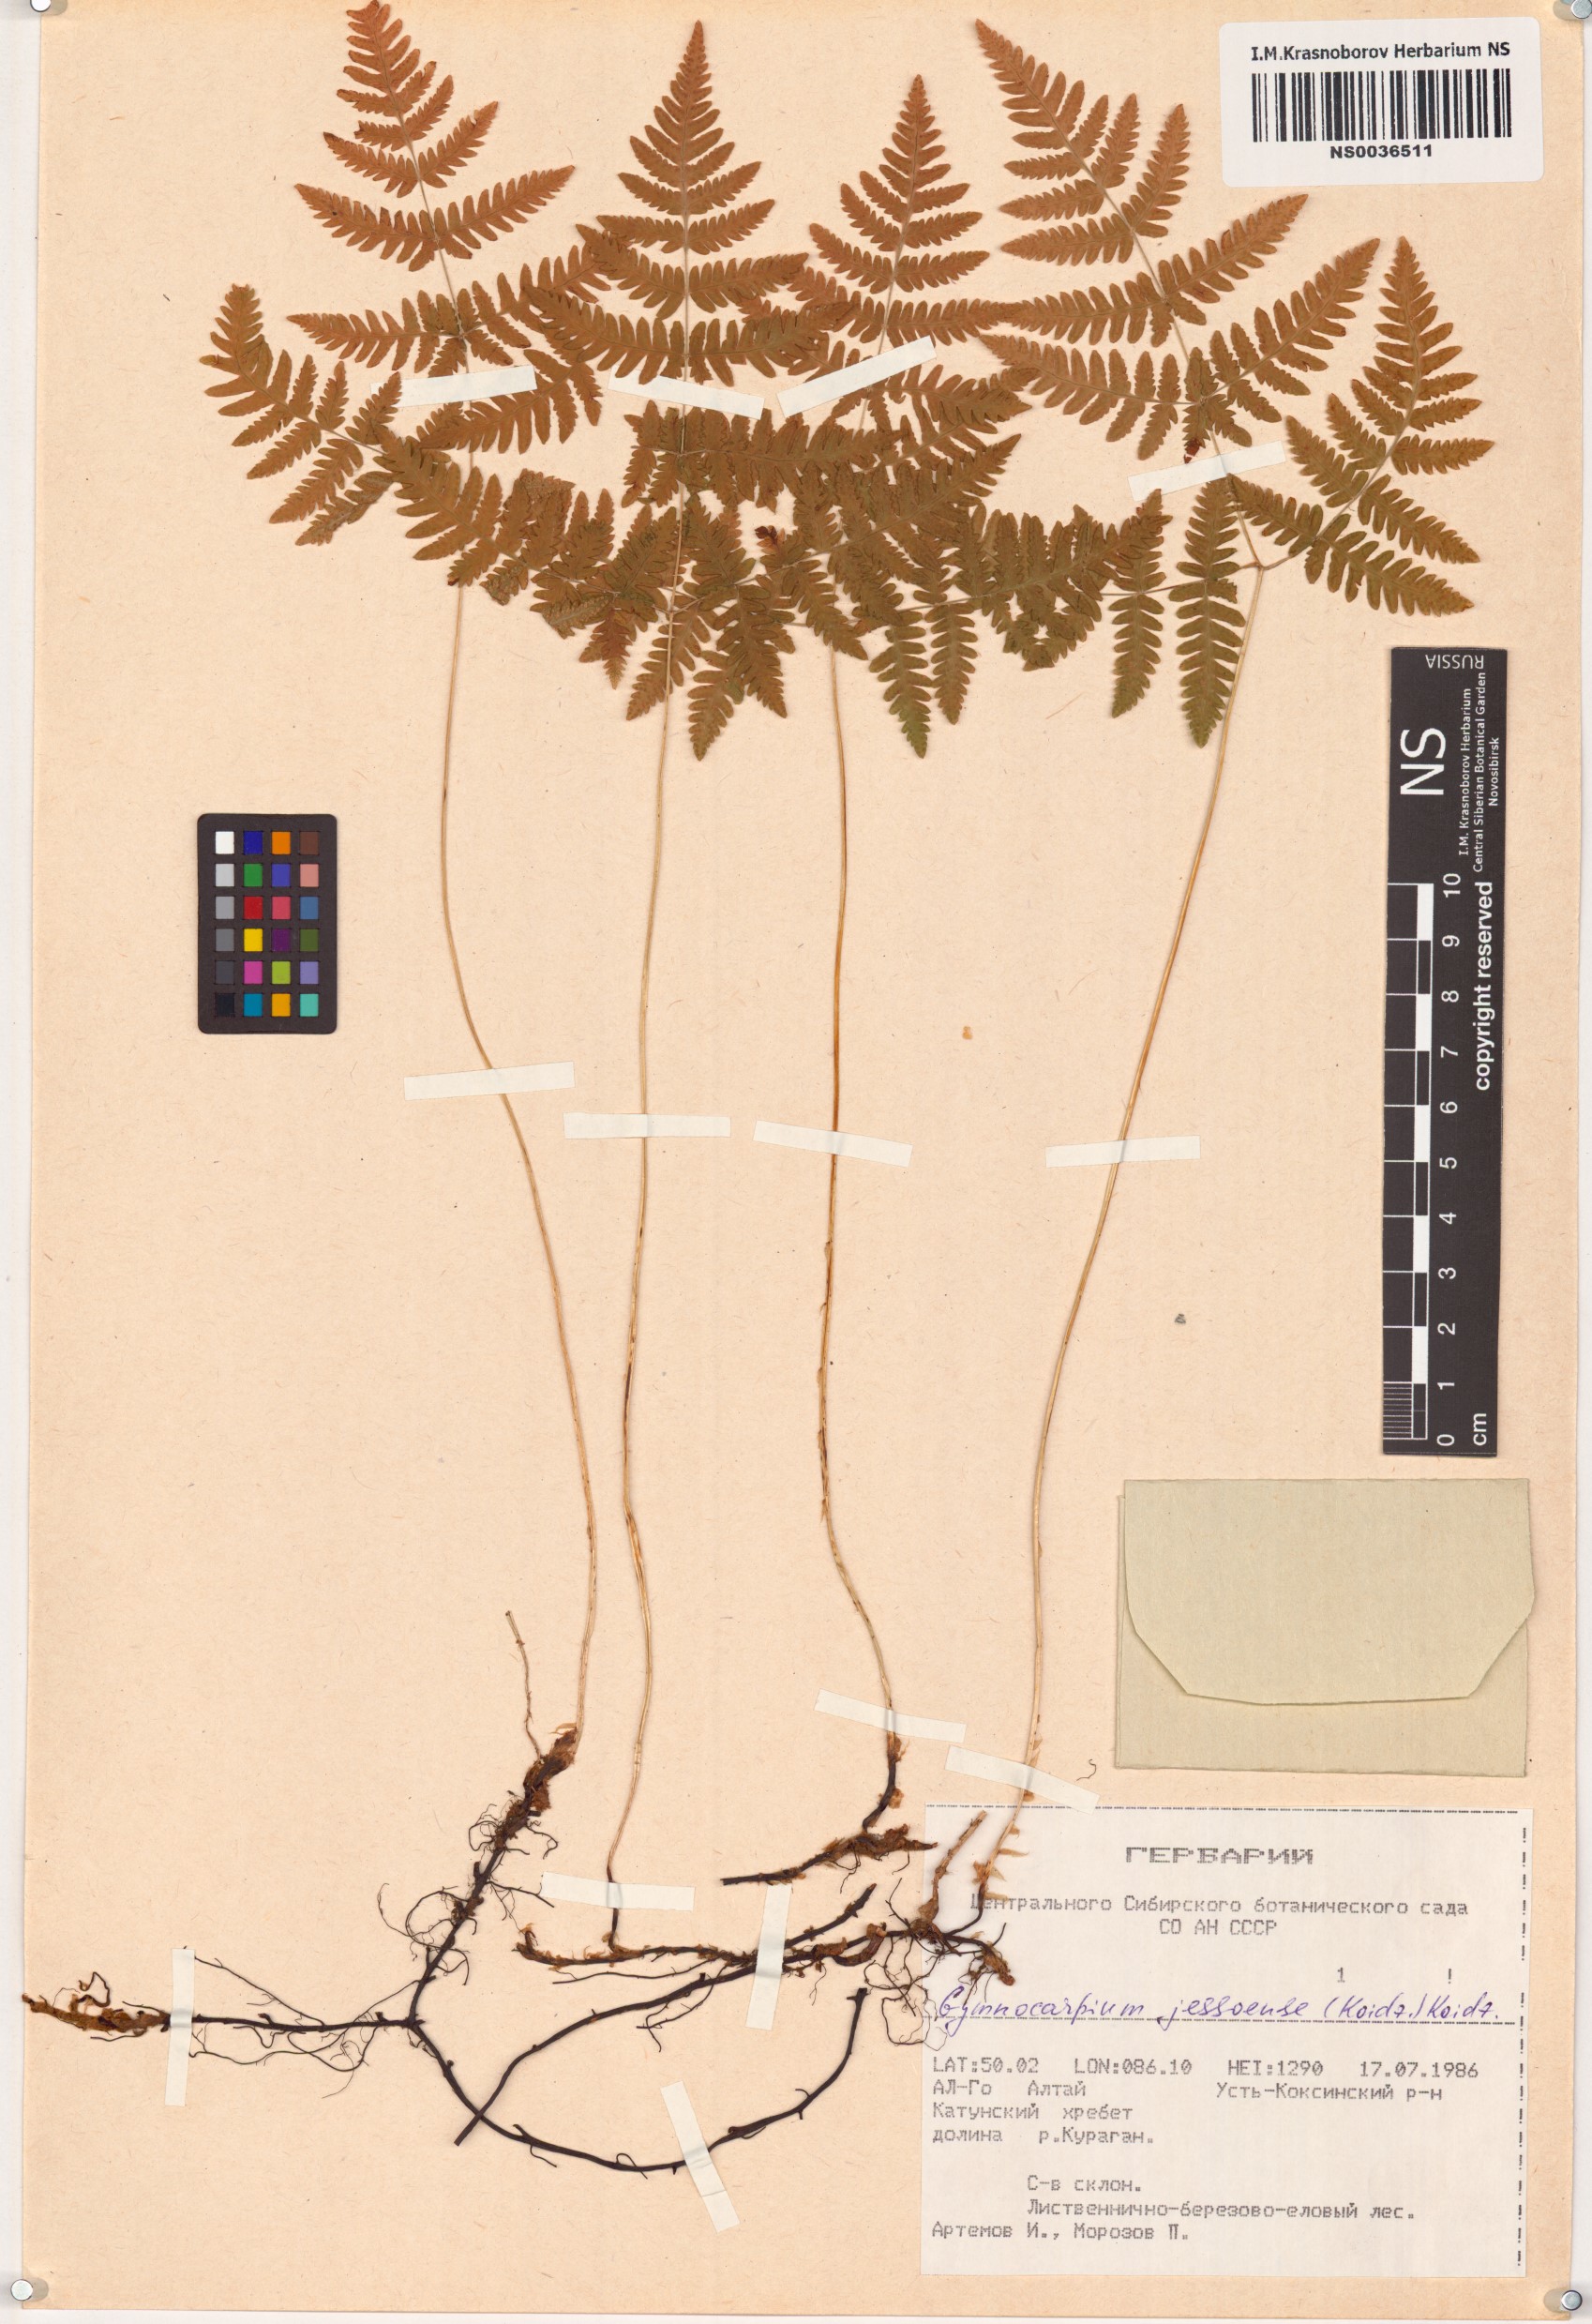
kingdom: Plantae
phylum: Tracheophyta
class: Polypodiopsida
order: Polypodiales
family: Cystopteridaceae
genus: Gymnocarpium
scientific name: Gymnocarpium jessoense
